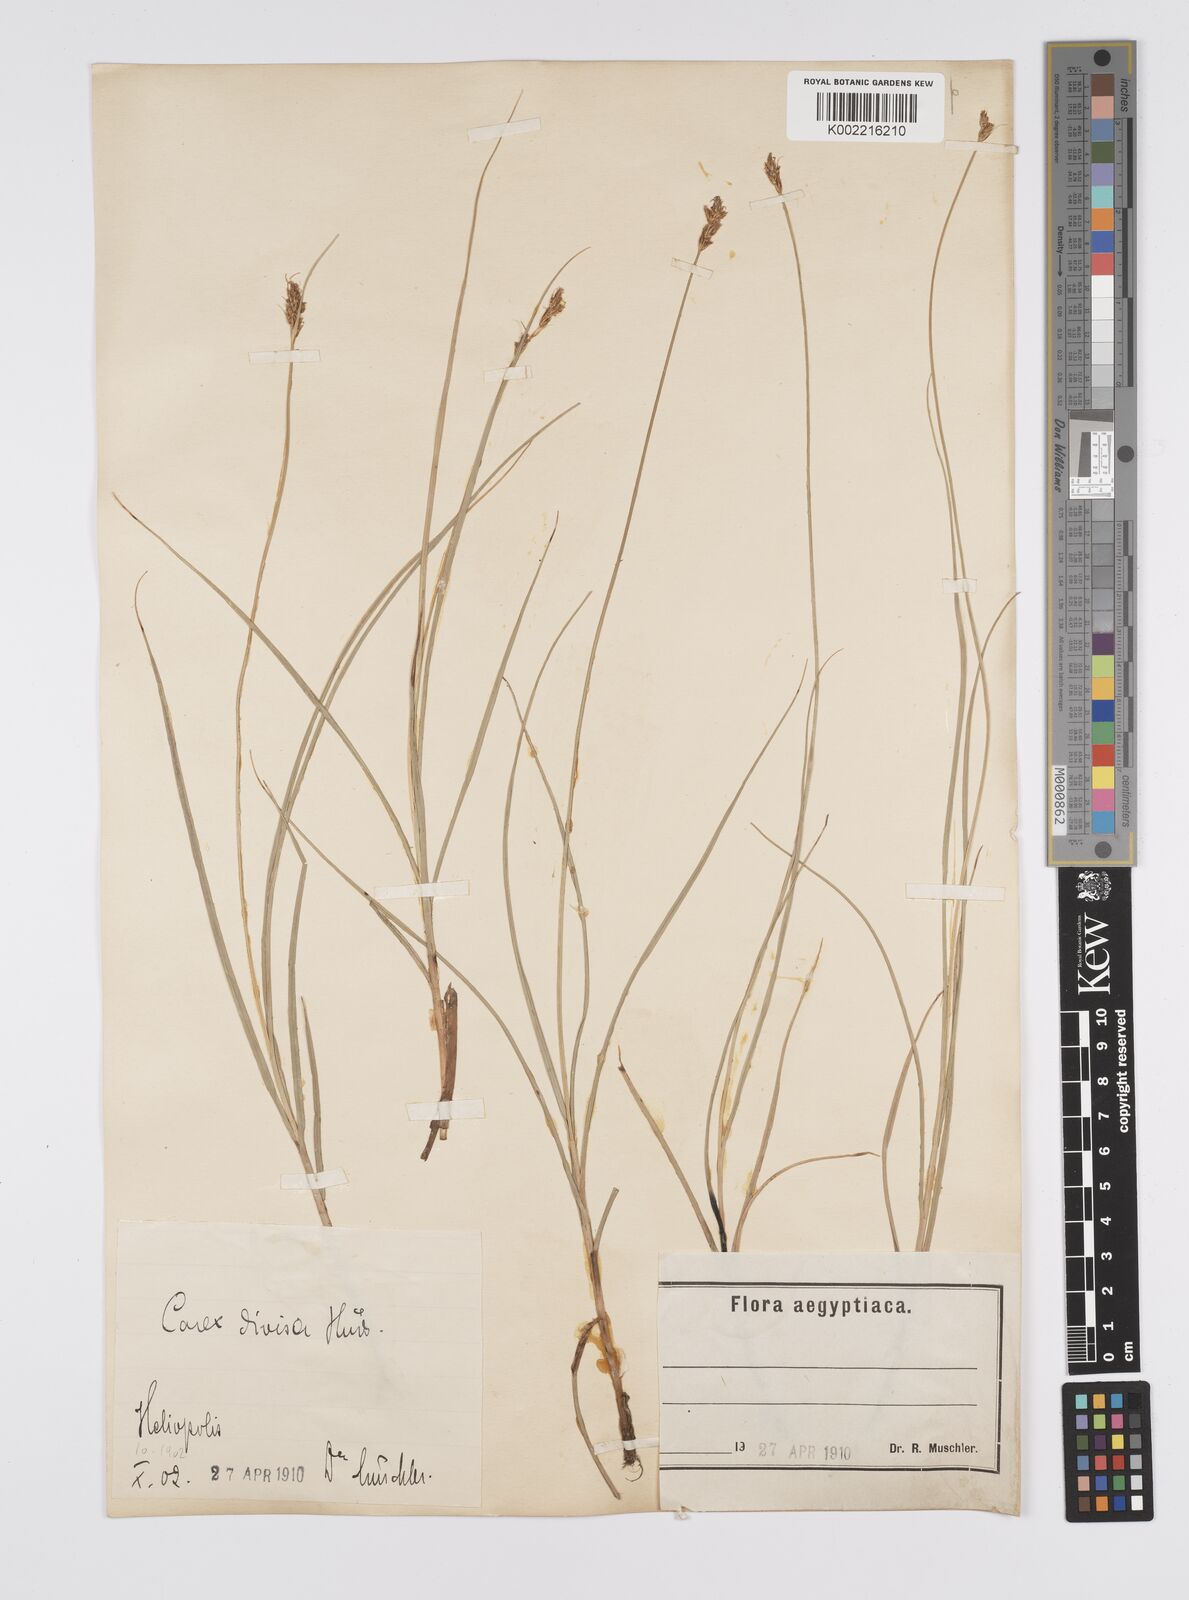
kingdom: Plantae
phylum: Tracheophyta
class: Liliopsida
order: Poales
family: Cyperaceae
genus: Carex
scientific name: Carex divisa
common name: Divided sedge
